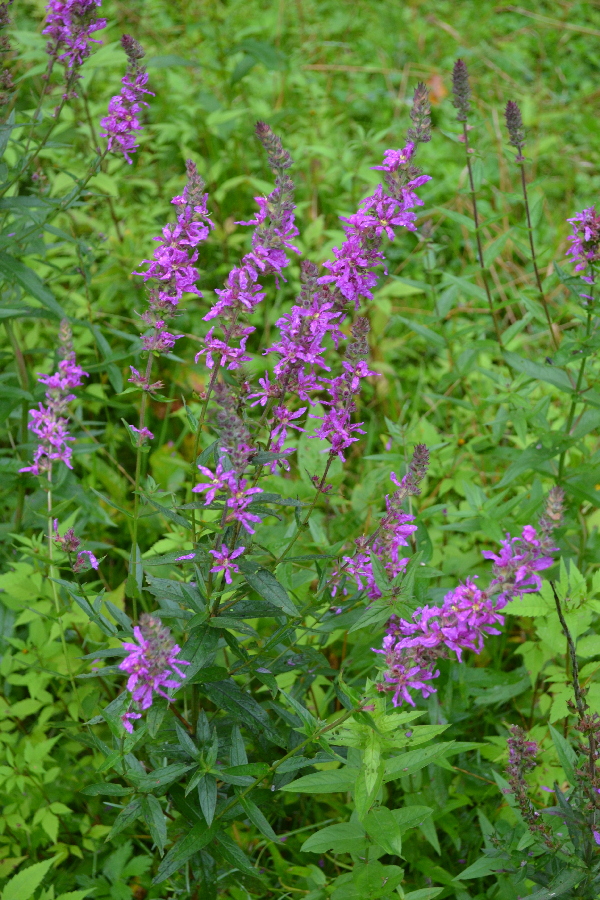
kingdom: Plantae
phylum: Tracheophyta
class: Magnoliopsida
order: Myrtales
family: Lythraceae
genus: Lythrum
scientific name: Lythrum salicaria
